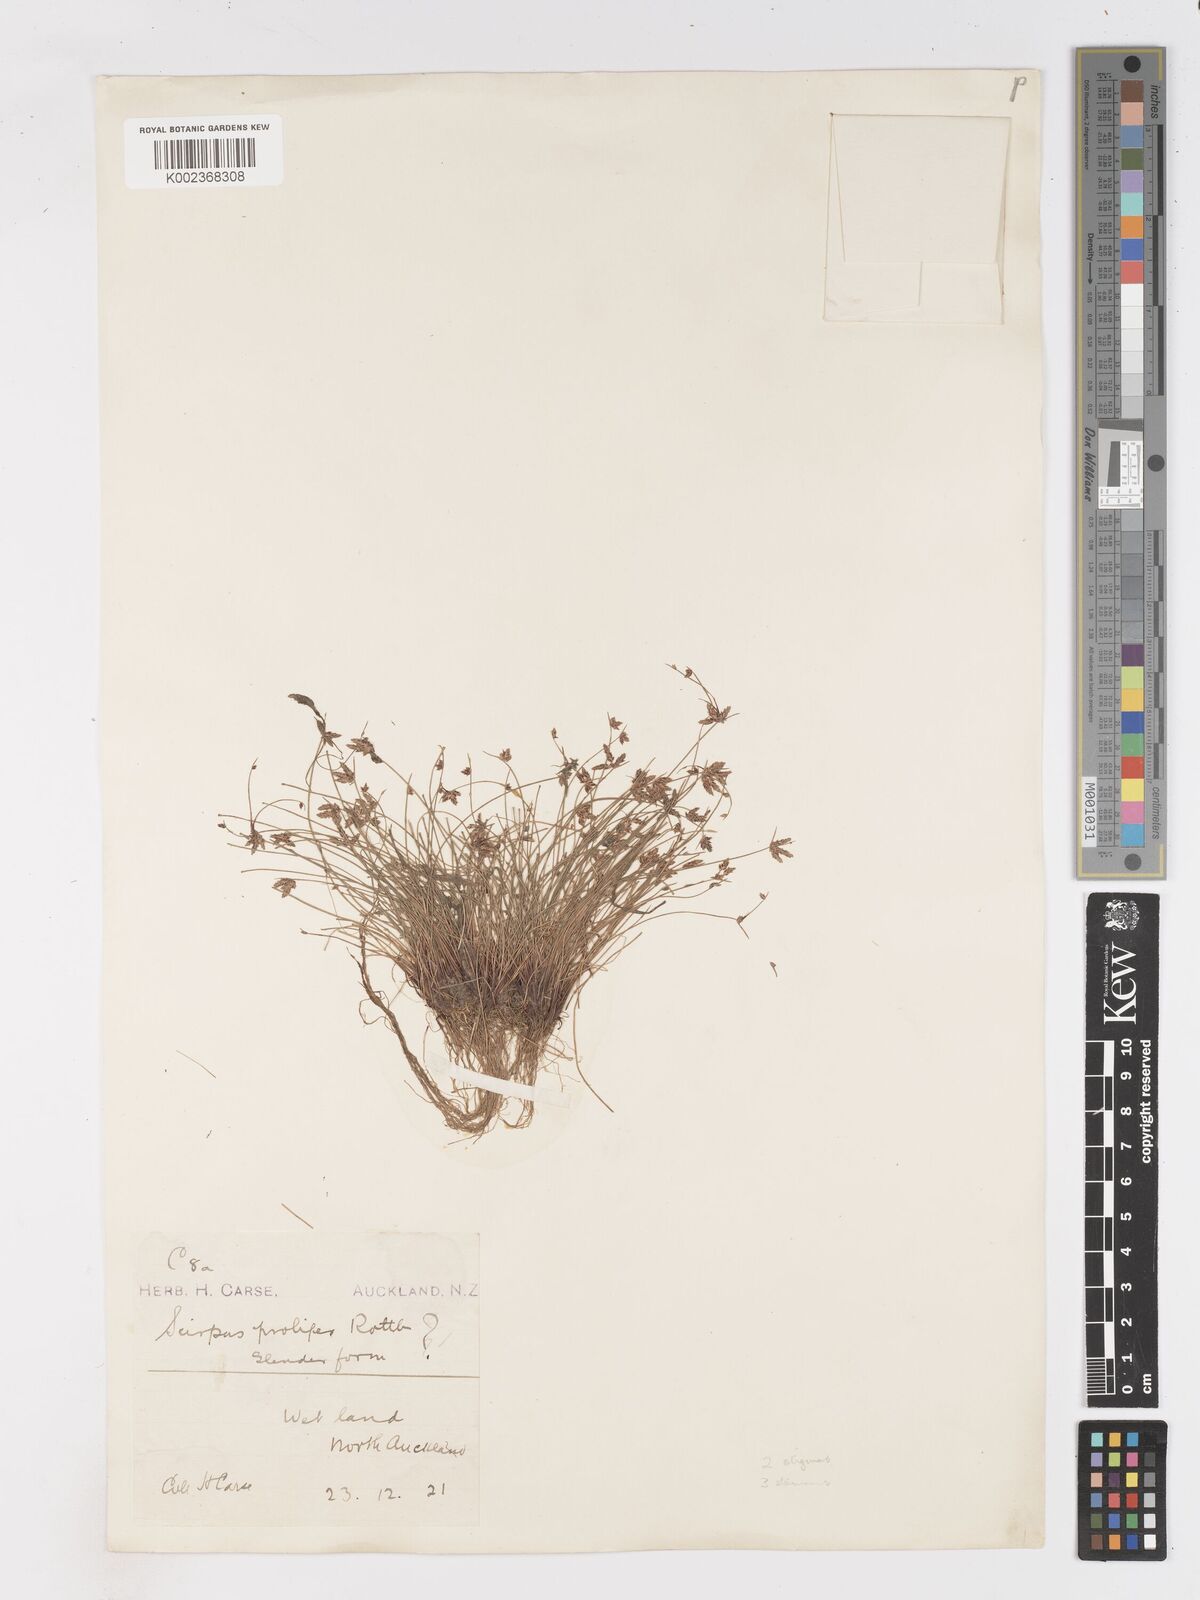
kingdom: Plantae
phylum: Tracheophyta
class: Liliopsida
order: Poales
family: Cyperaceae
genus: Isolepis
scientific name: Isolepis reticularis
